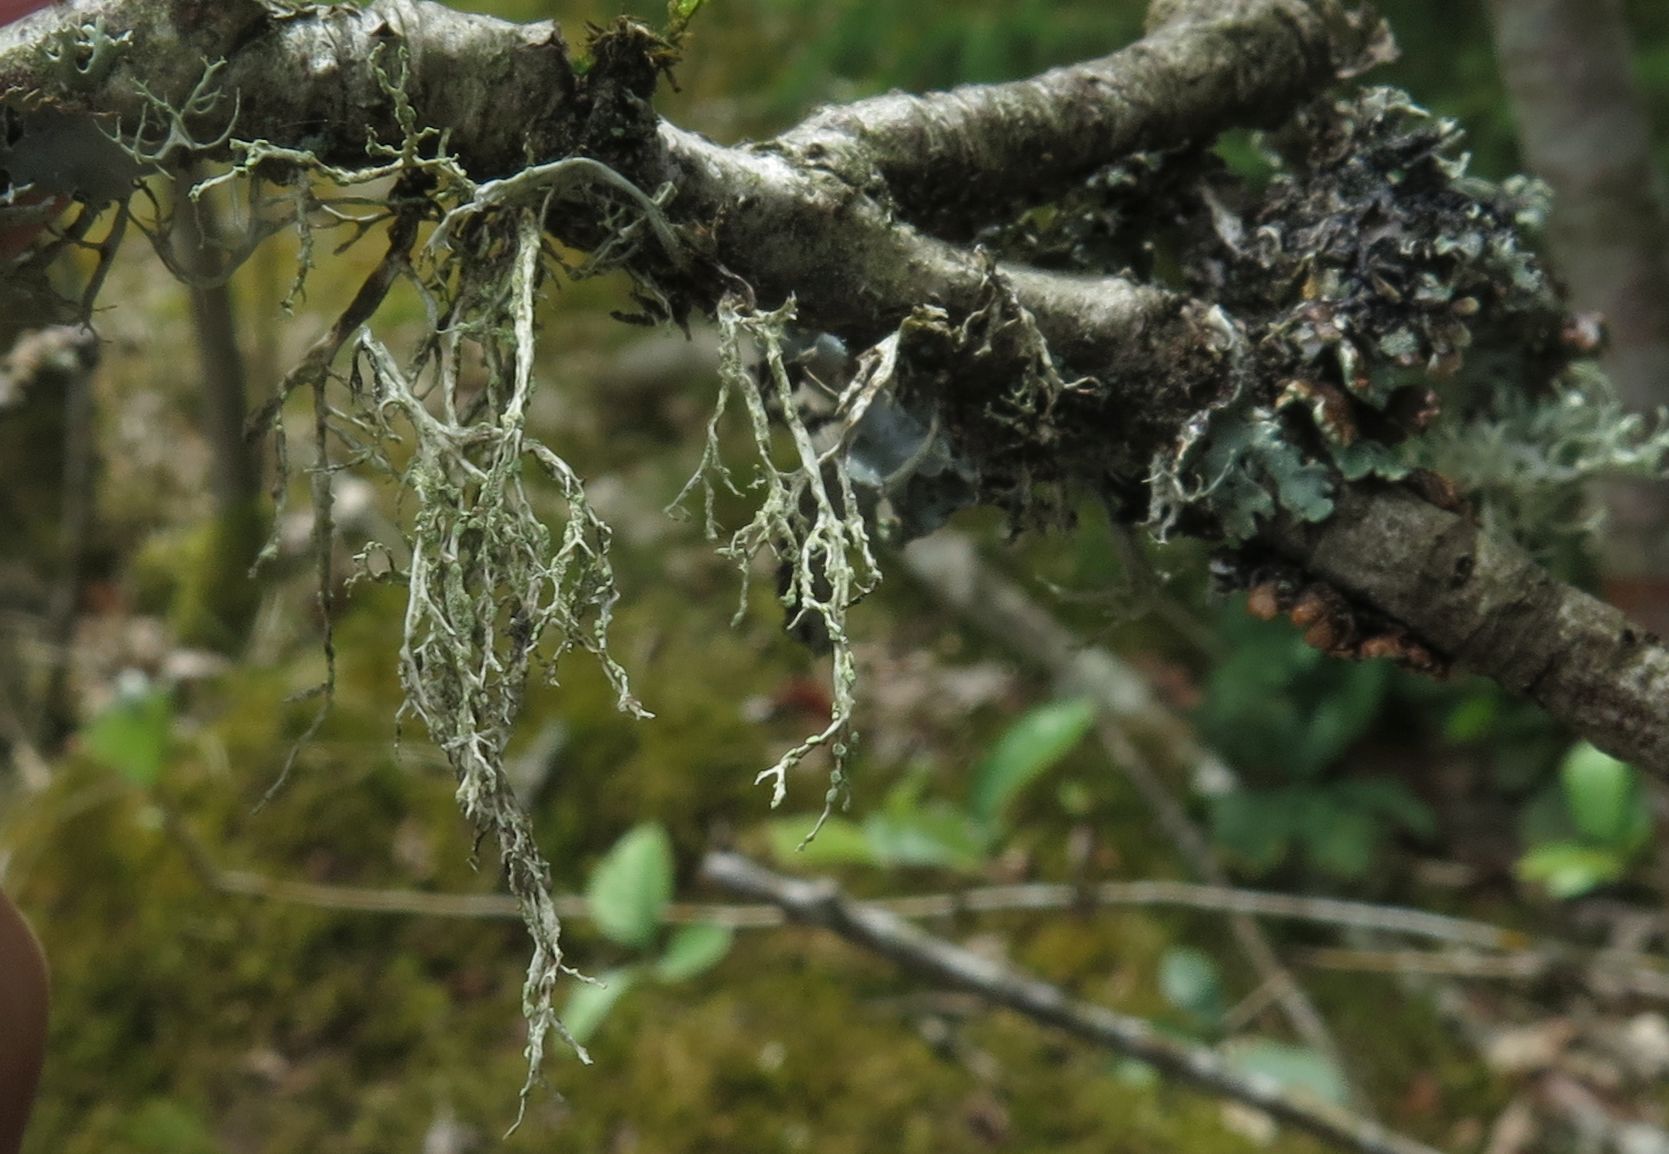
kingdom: Fungi
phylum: Ascomycota
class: Lecanoromycetes
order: Lecanorales
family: Ramalinaceae
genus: Ramalina
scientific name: Ramalina farinacea
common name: melet grenlav
